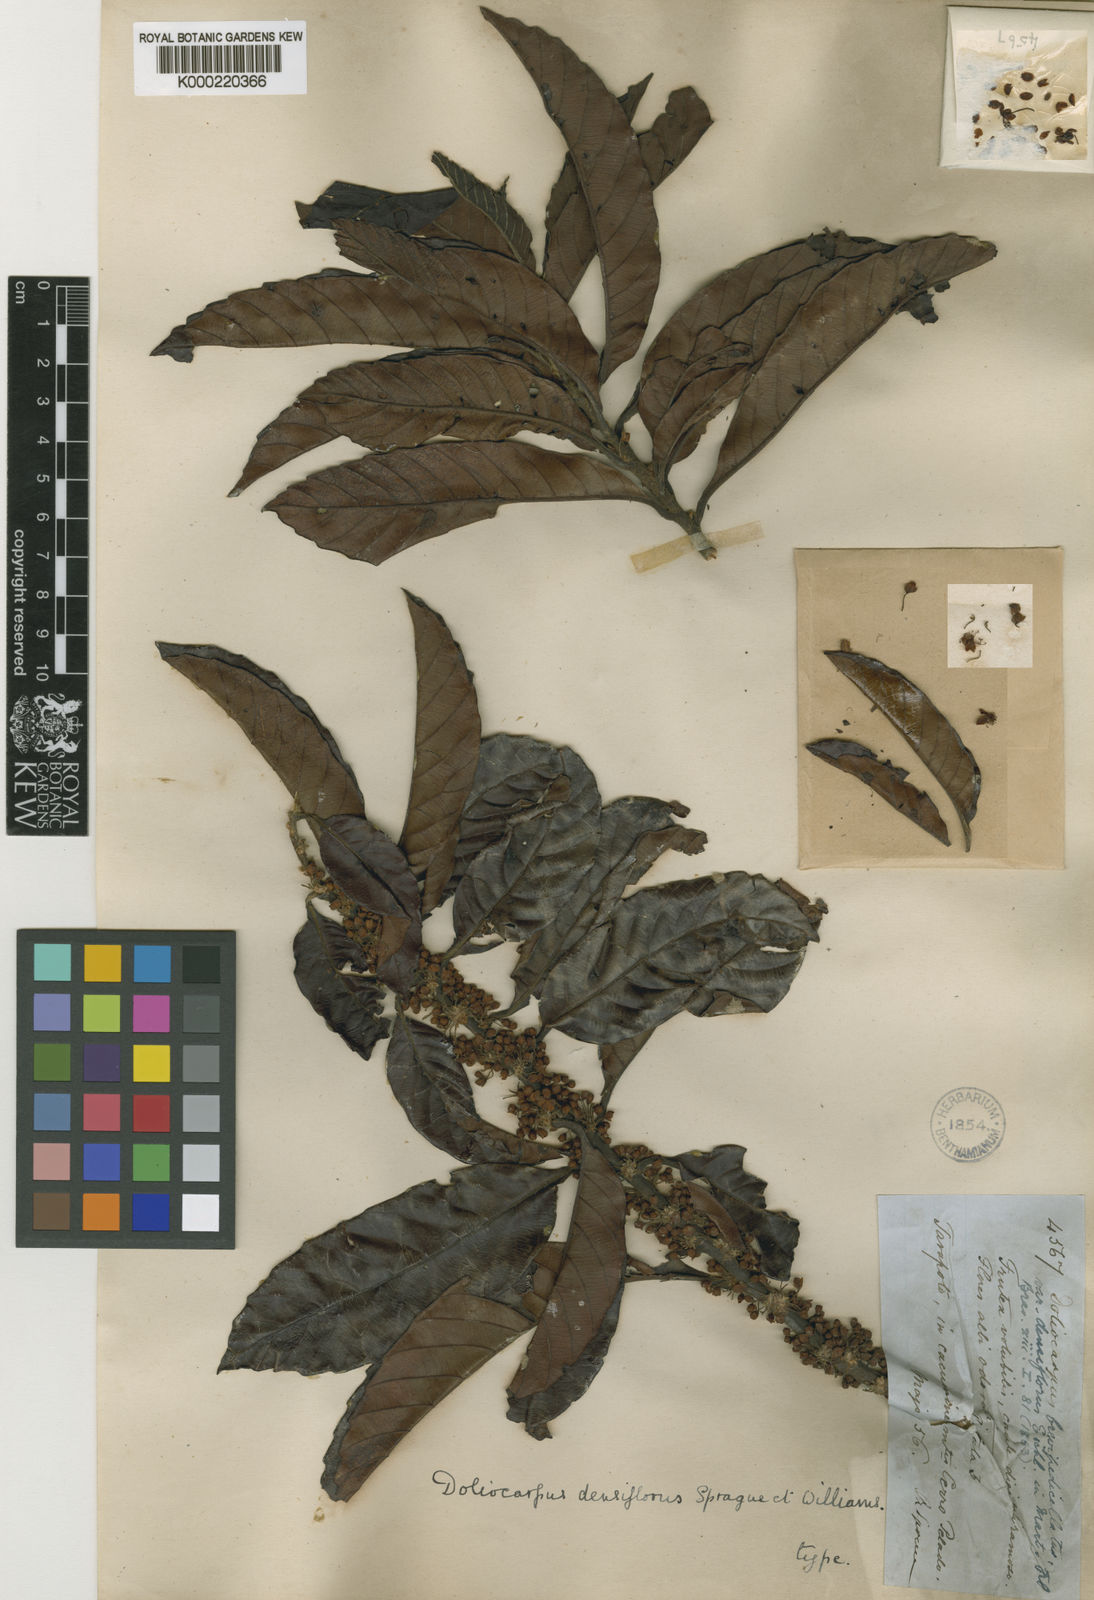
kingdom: Plantae
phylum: Tracheophyta
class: Magnoliopsida
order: Dilleniales
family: Dilleniaceae
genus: Doliocarpus
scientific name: Doliocarpus dentatus
